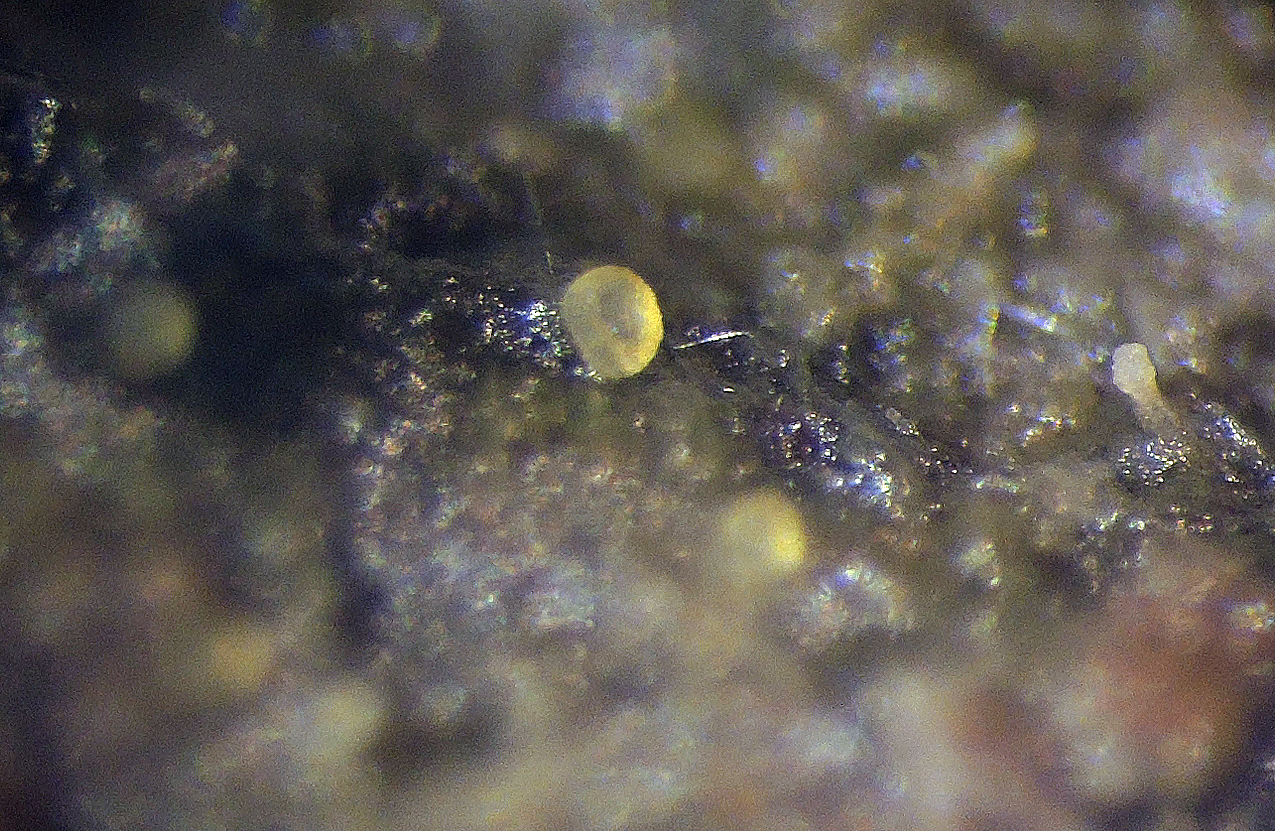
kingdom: Fungi
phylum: Ascomycota
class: Pezizomycetes
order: Pezizales
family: Ascobolaceae
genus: Ascobolus
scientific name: Ascobolus
